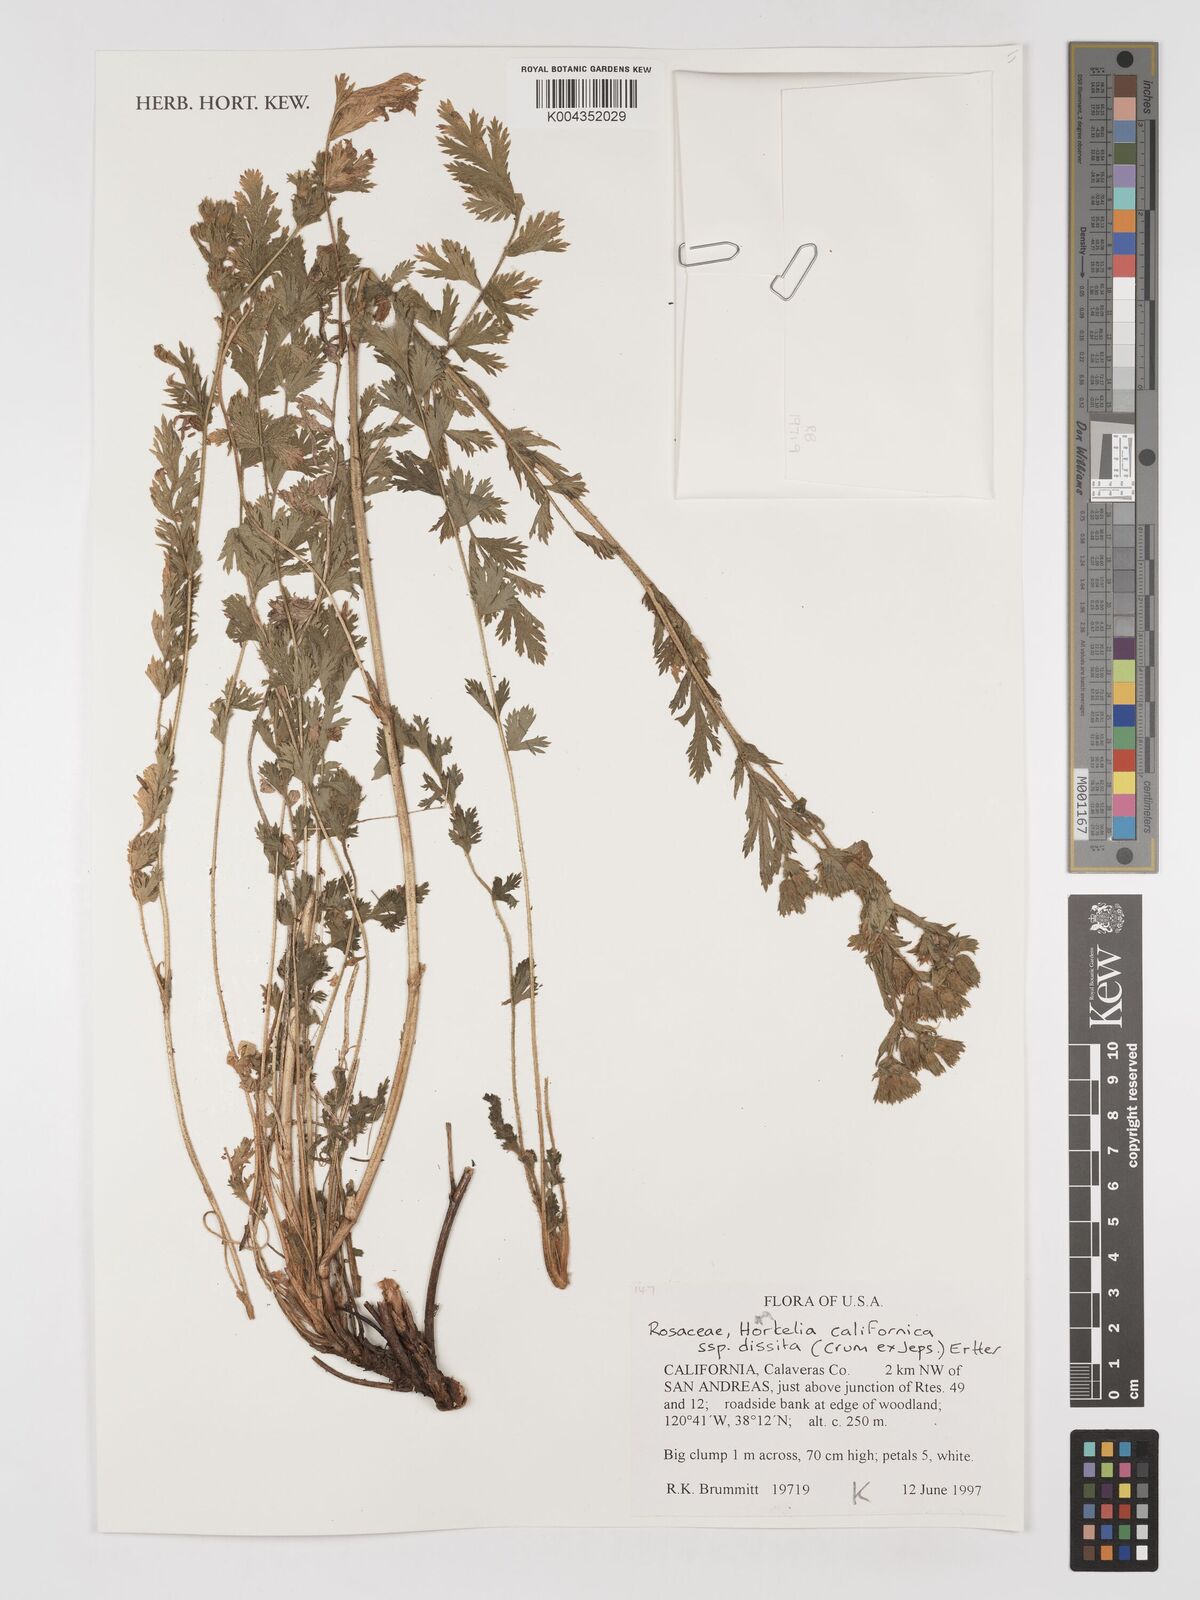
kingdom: Plantae
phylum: Tracheophyta
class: Magnoliopsida
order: Rosales
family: Rosaceae
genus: Potentilla
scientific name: Potentilla californica
